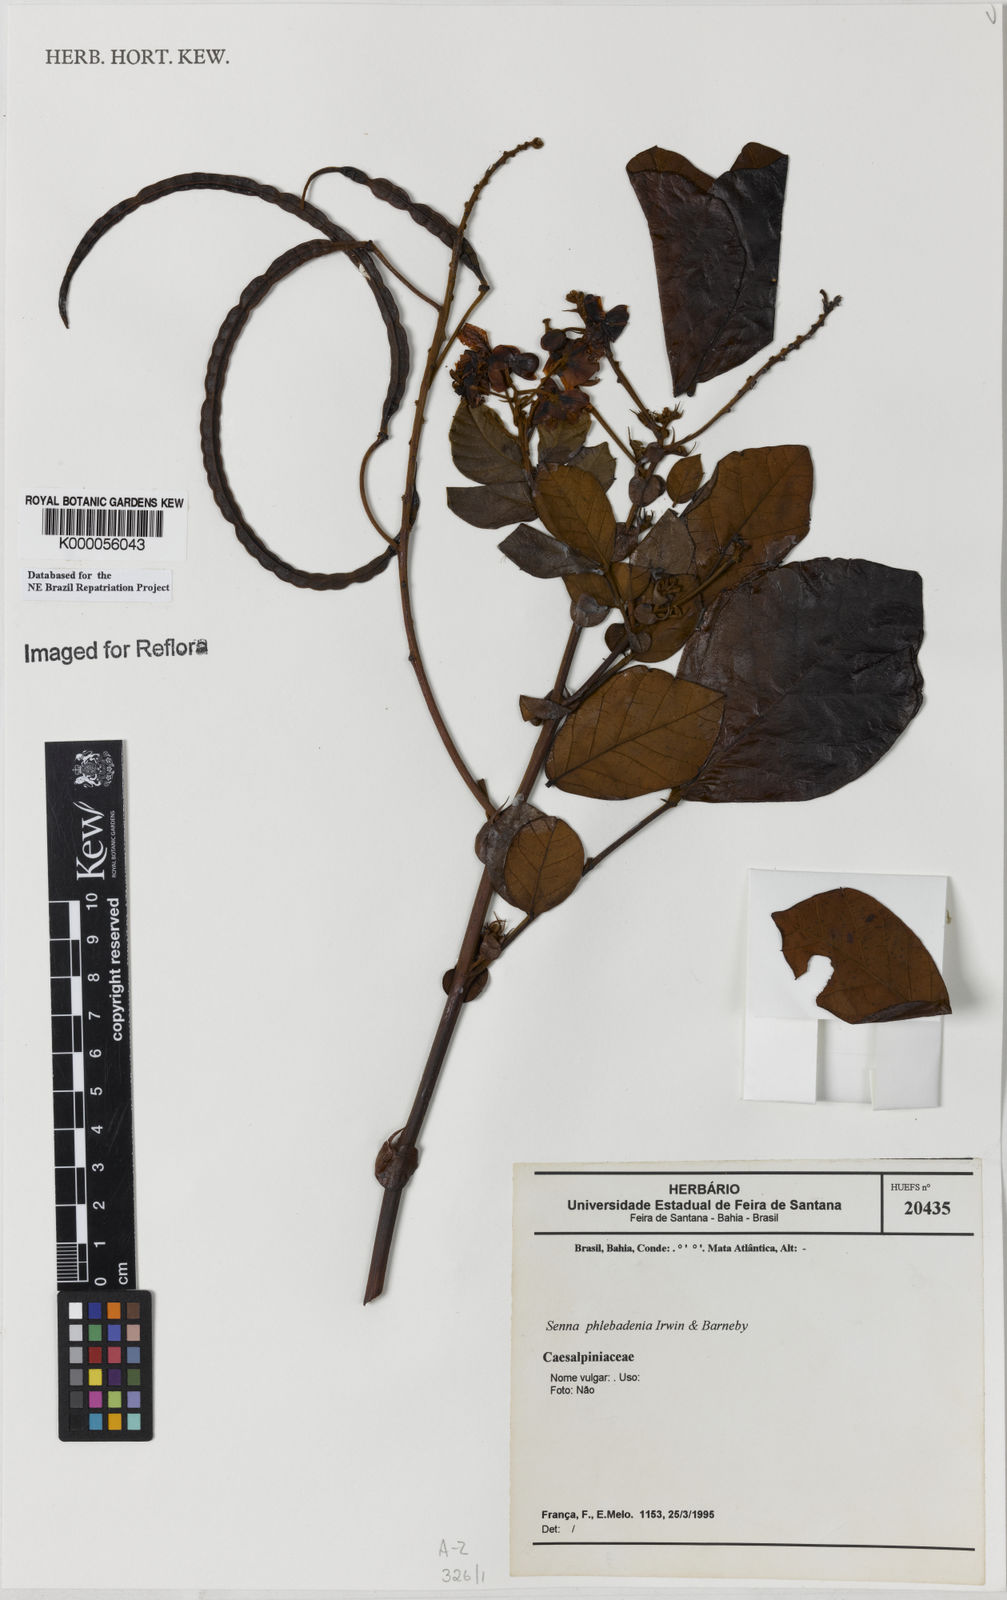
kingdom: Plantae
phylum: Tracheophyta
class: Magnoliopsida
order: Fabales
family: Fabaceae
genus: Senna
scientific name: Senna phlebadenia
